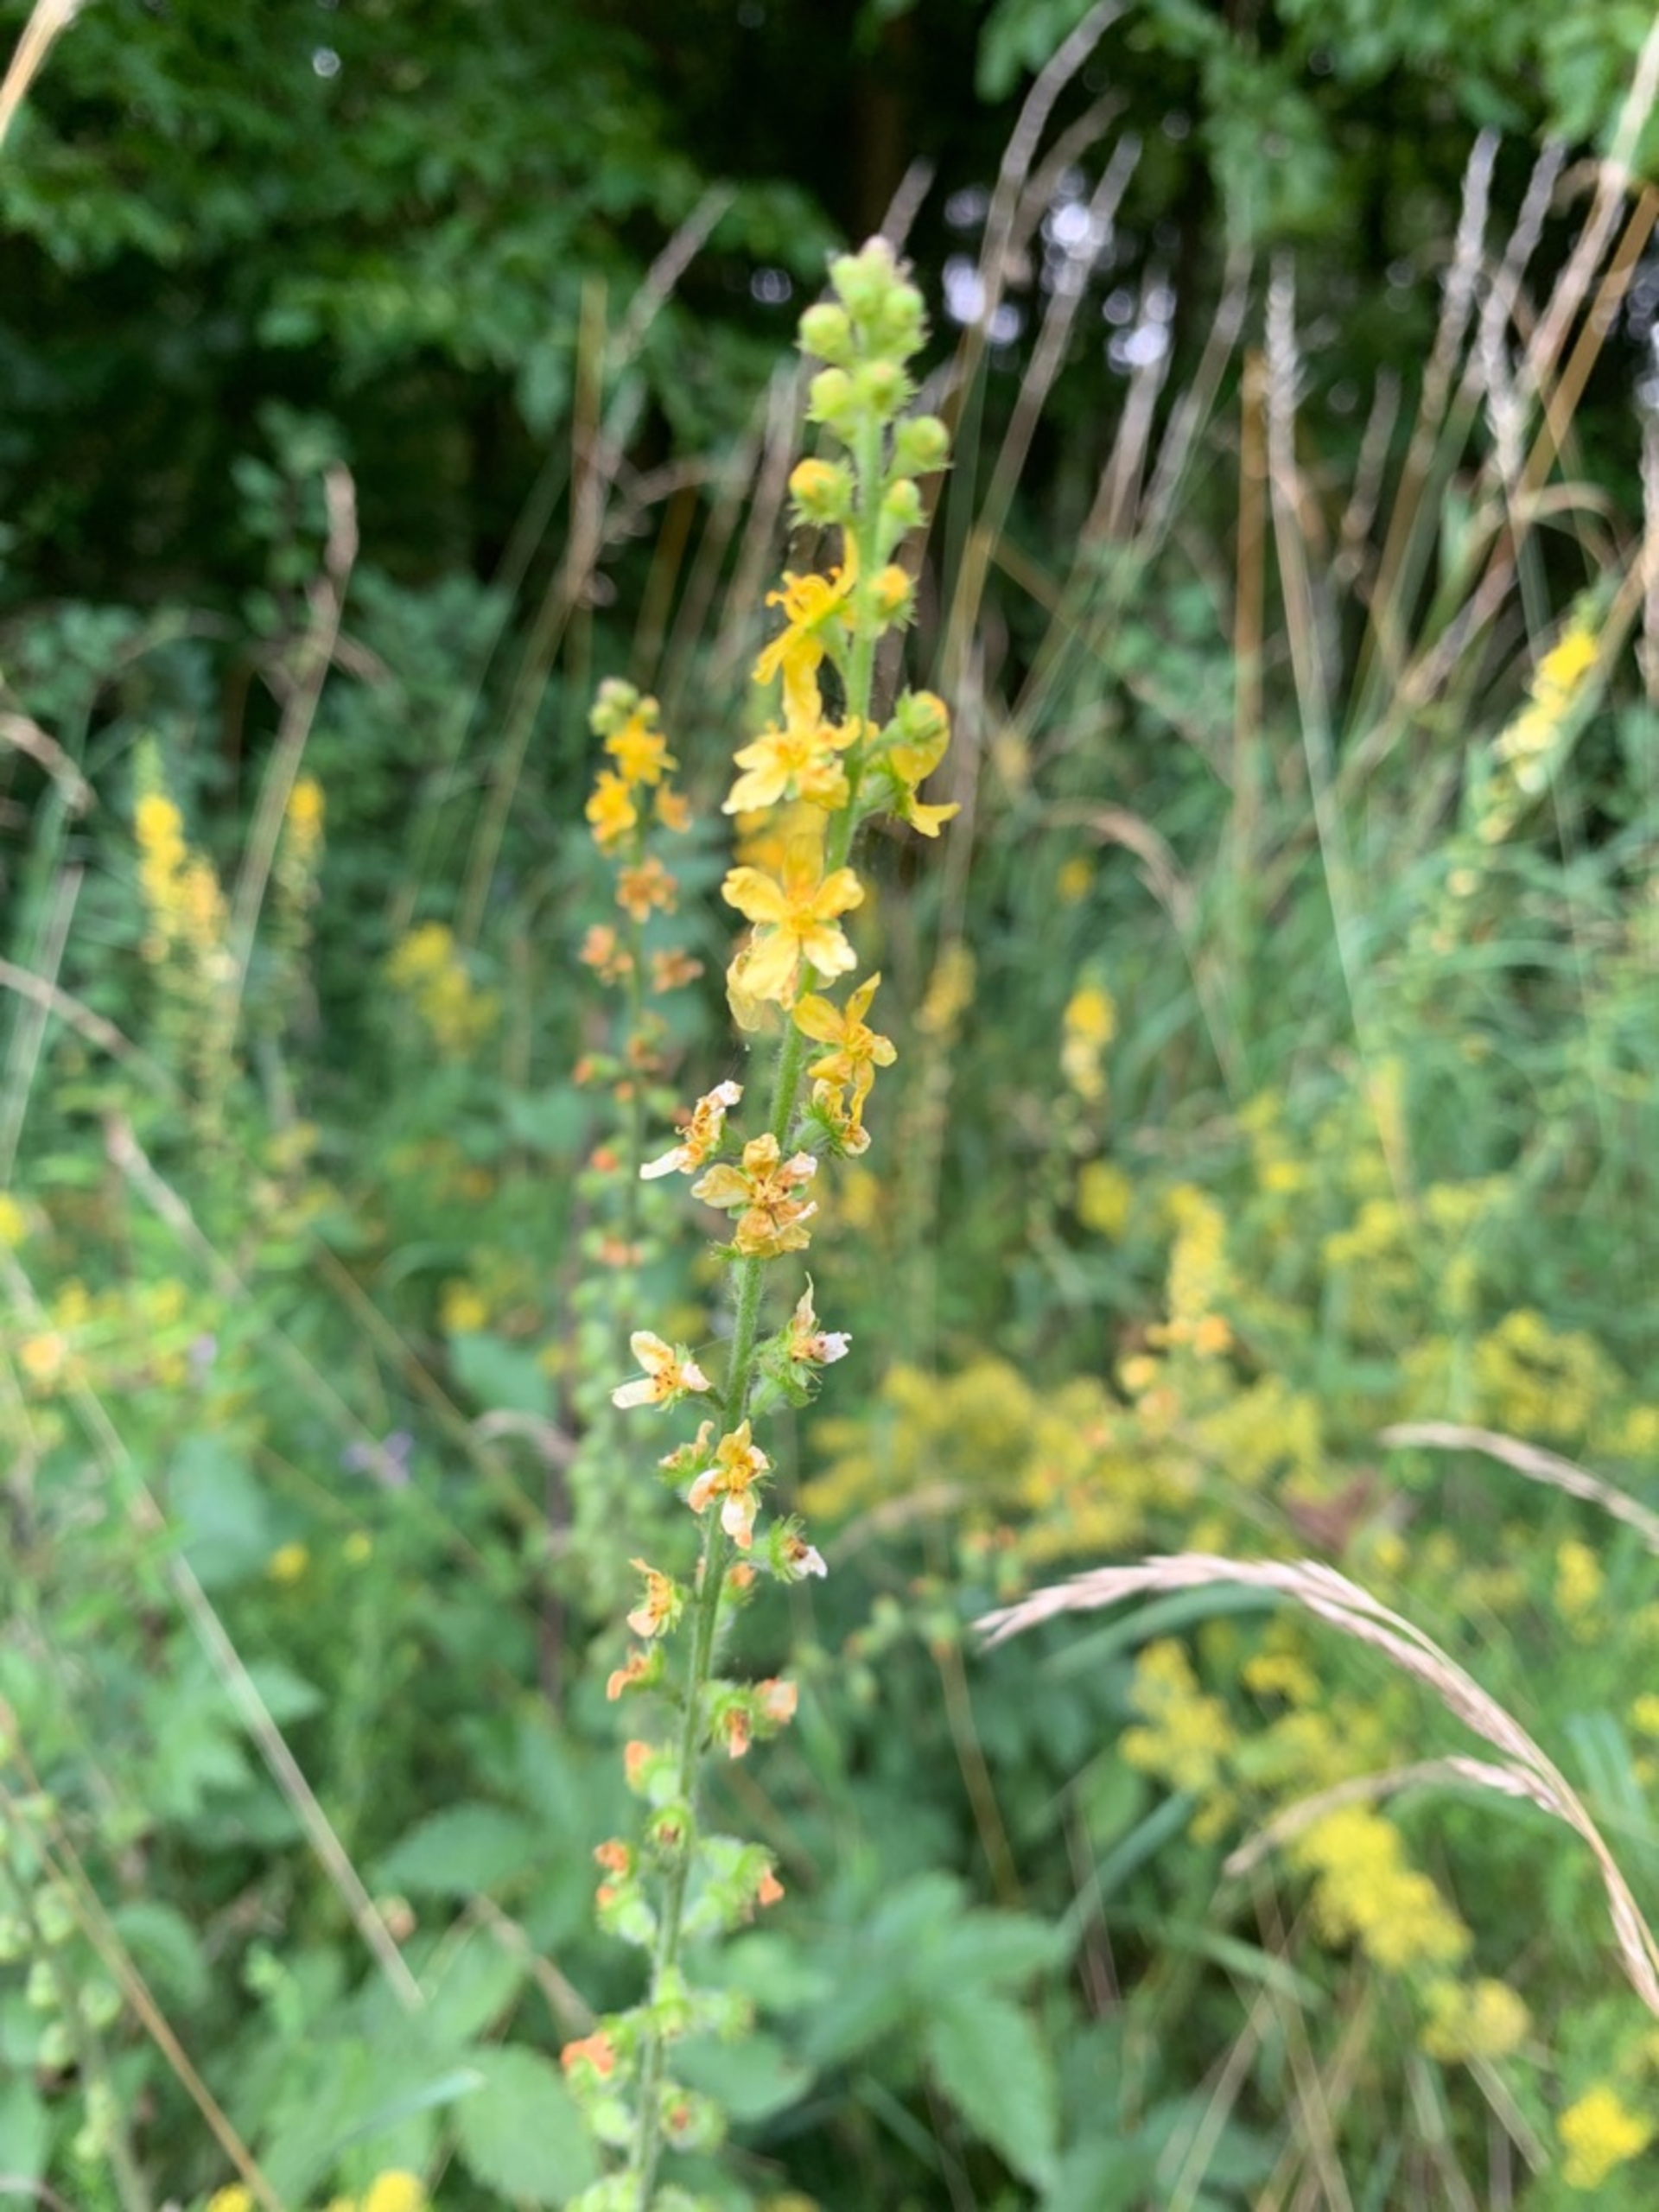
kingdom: Plantae
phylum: Tracheophyta
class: Magnoliopsida
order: Rosales
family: Rosaceae
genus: Agrimonia
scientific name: Agrimonia eupatoria
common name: Almindelig agermåne
